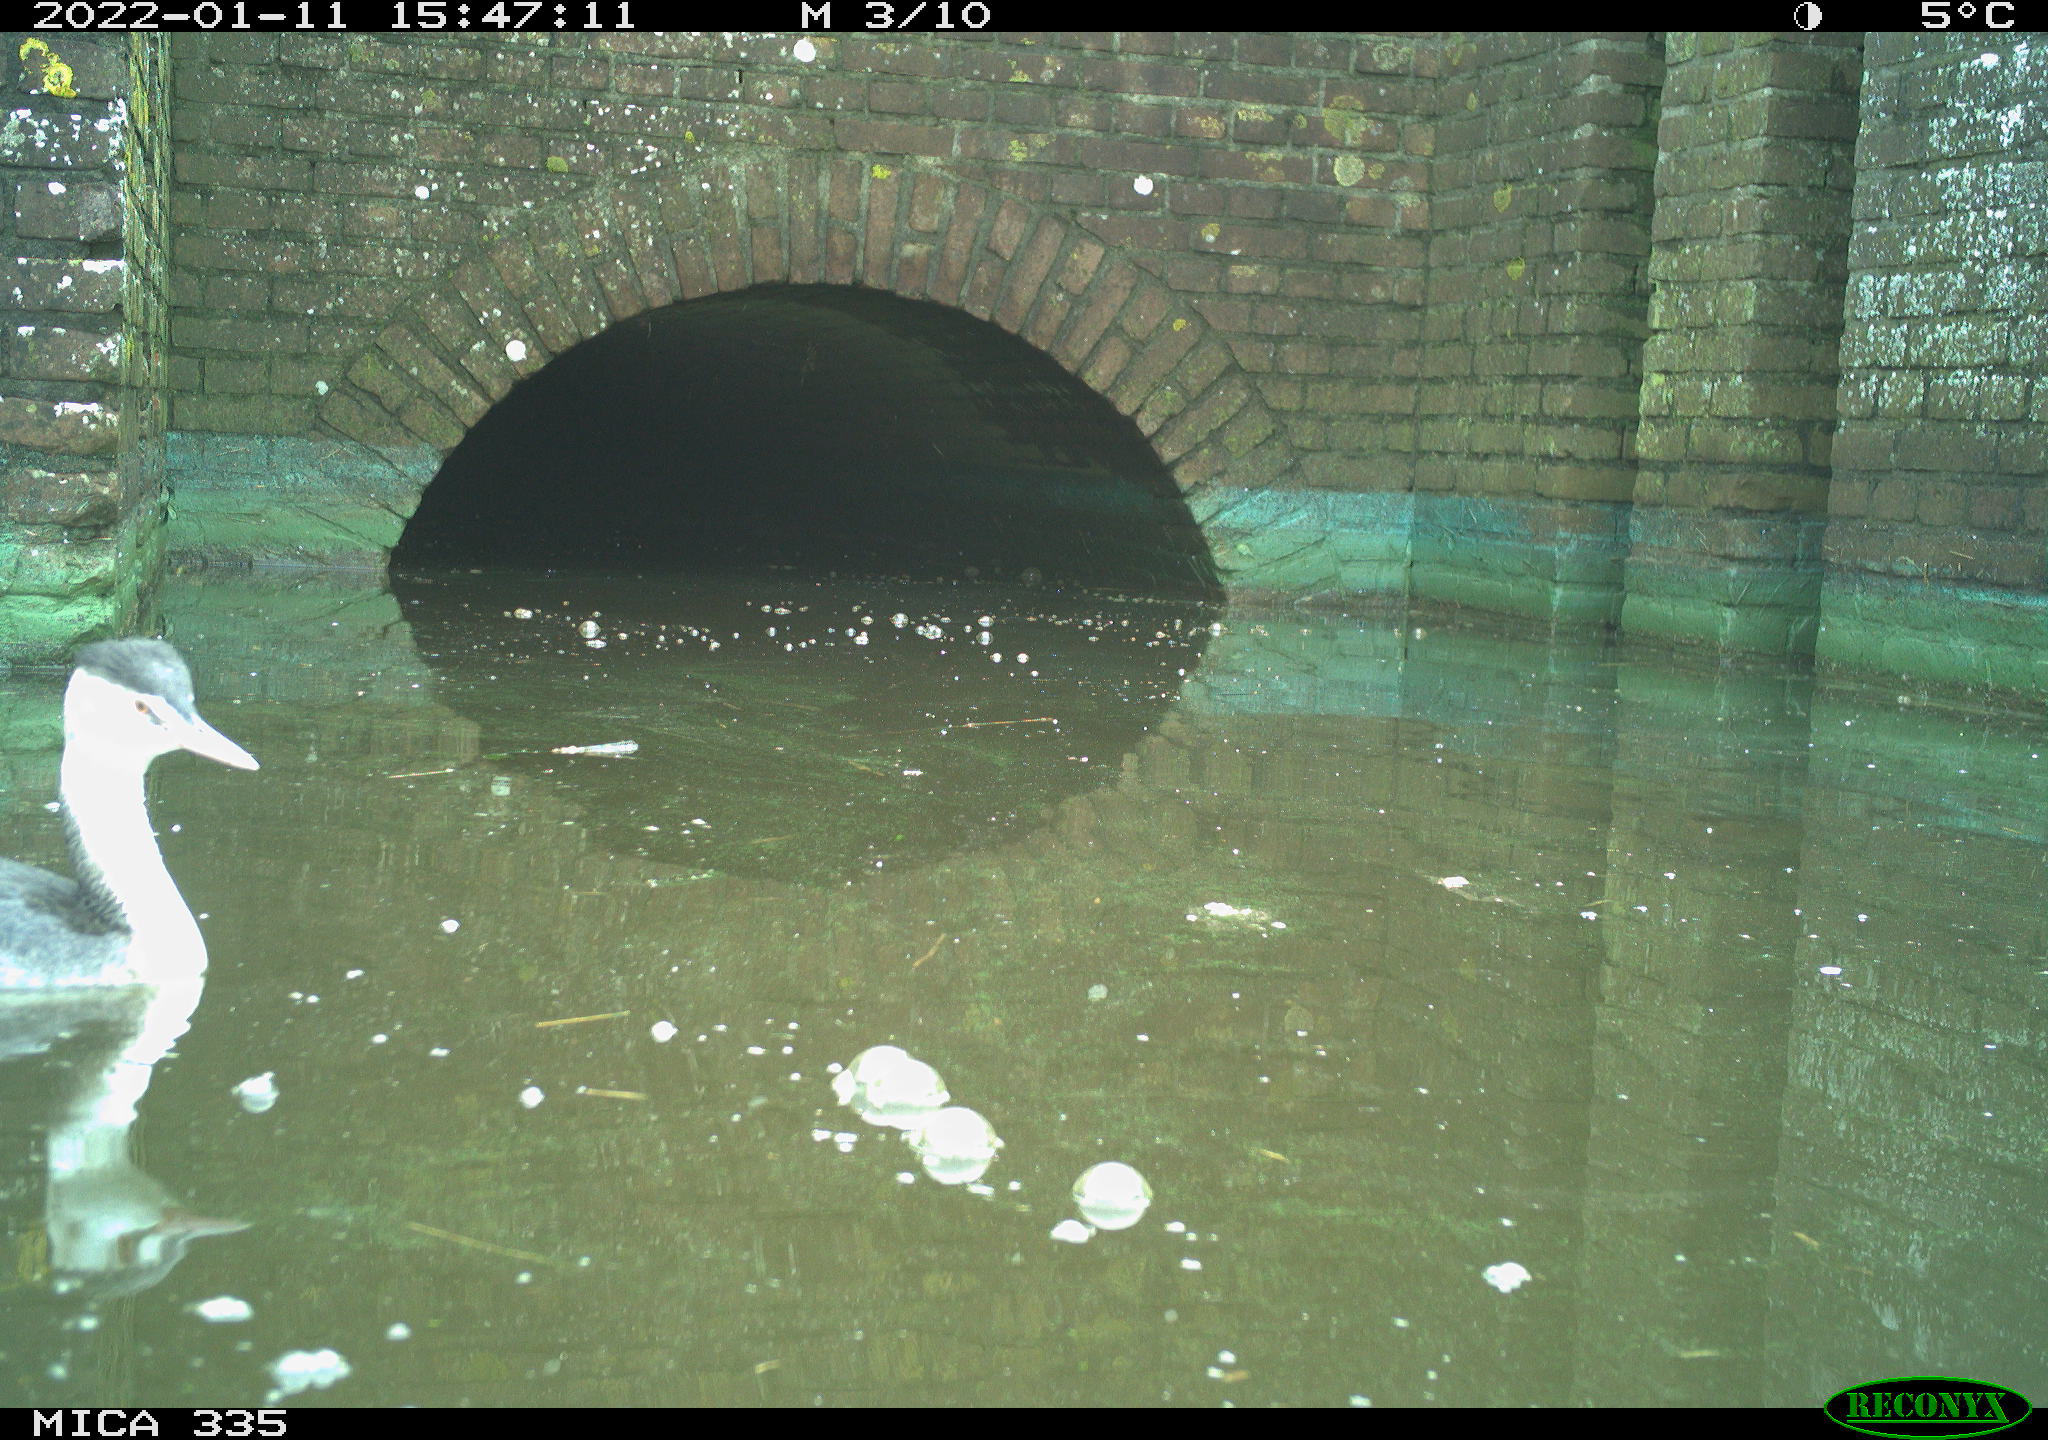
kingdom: Animalia
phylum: Chordata
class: Aves
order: Gruiformes
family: Rallidae
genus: Fulica
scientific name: Fulica atra
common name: Eurasian coot
